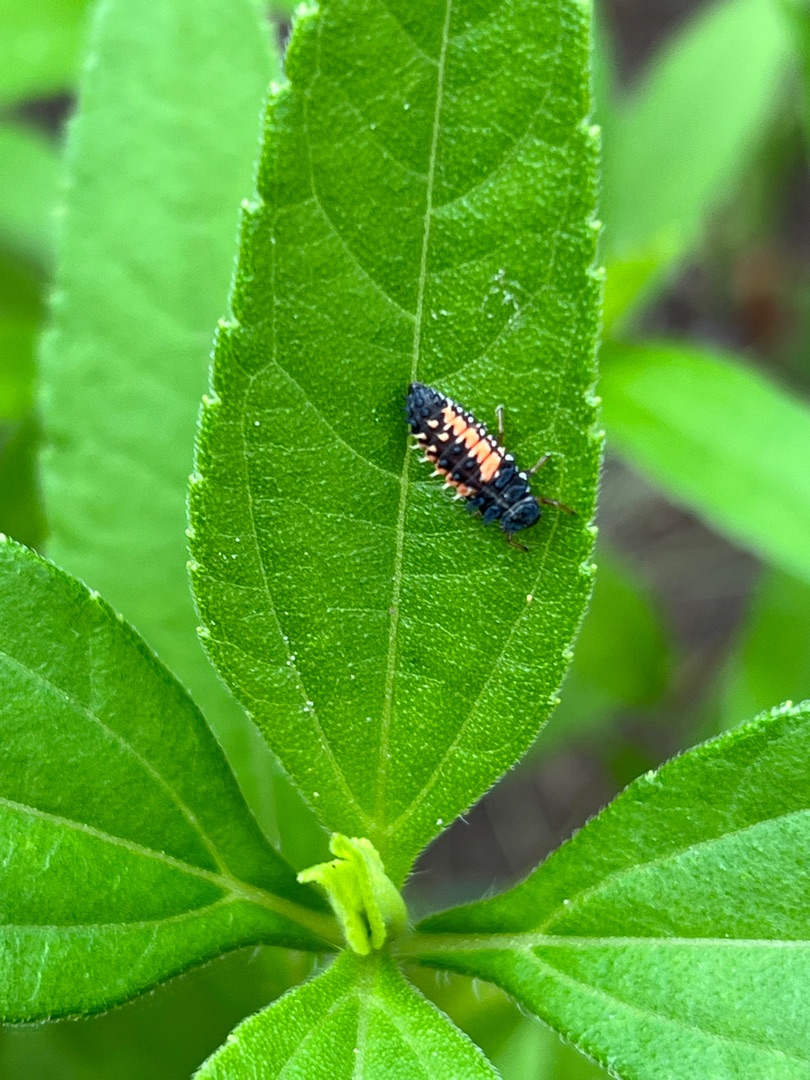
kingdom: Animalia
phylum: Arthropoda
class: Insecta
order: Coleoptera
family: Coccinellidae
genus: Harmonia
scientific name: Harmonia axyridis
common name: Harlekinmariehøne
